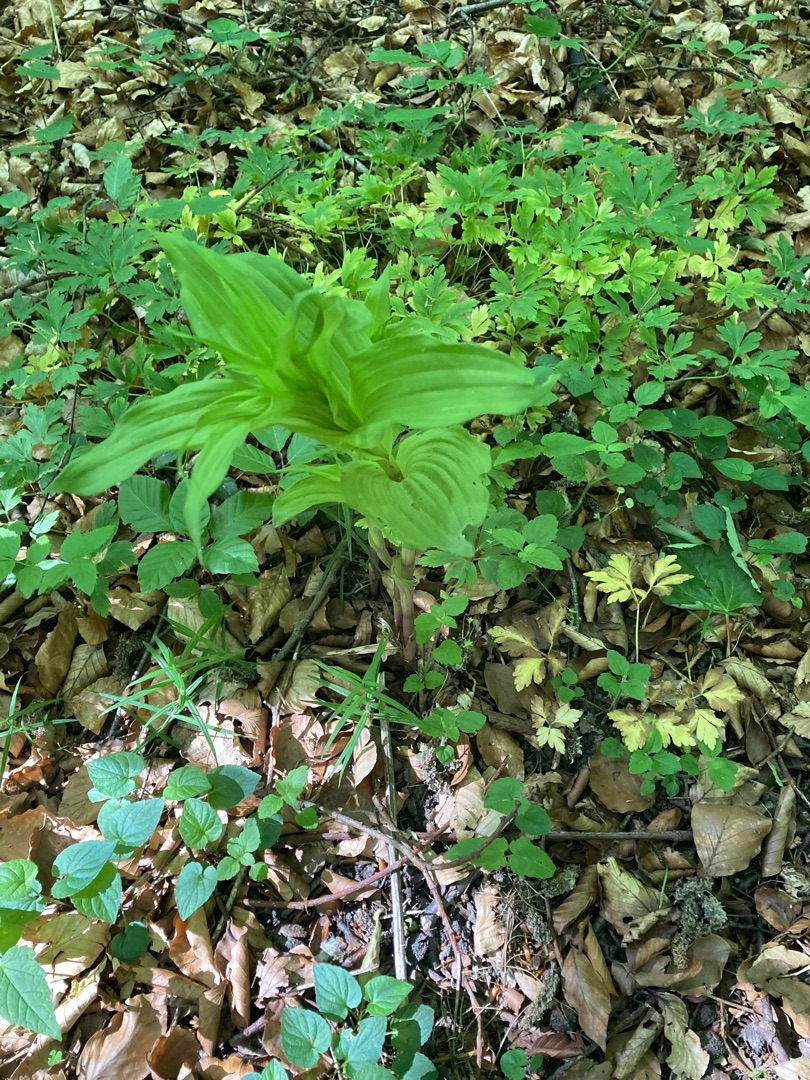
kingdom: Plantae
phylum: Tracheophyta
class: Liliopsida
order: Asparagales
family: Orchidaceae
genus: Epipactis
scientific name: Epipactis helleborine
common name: Skov-hullæbe
